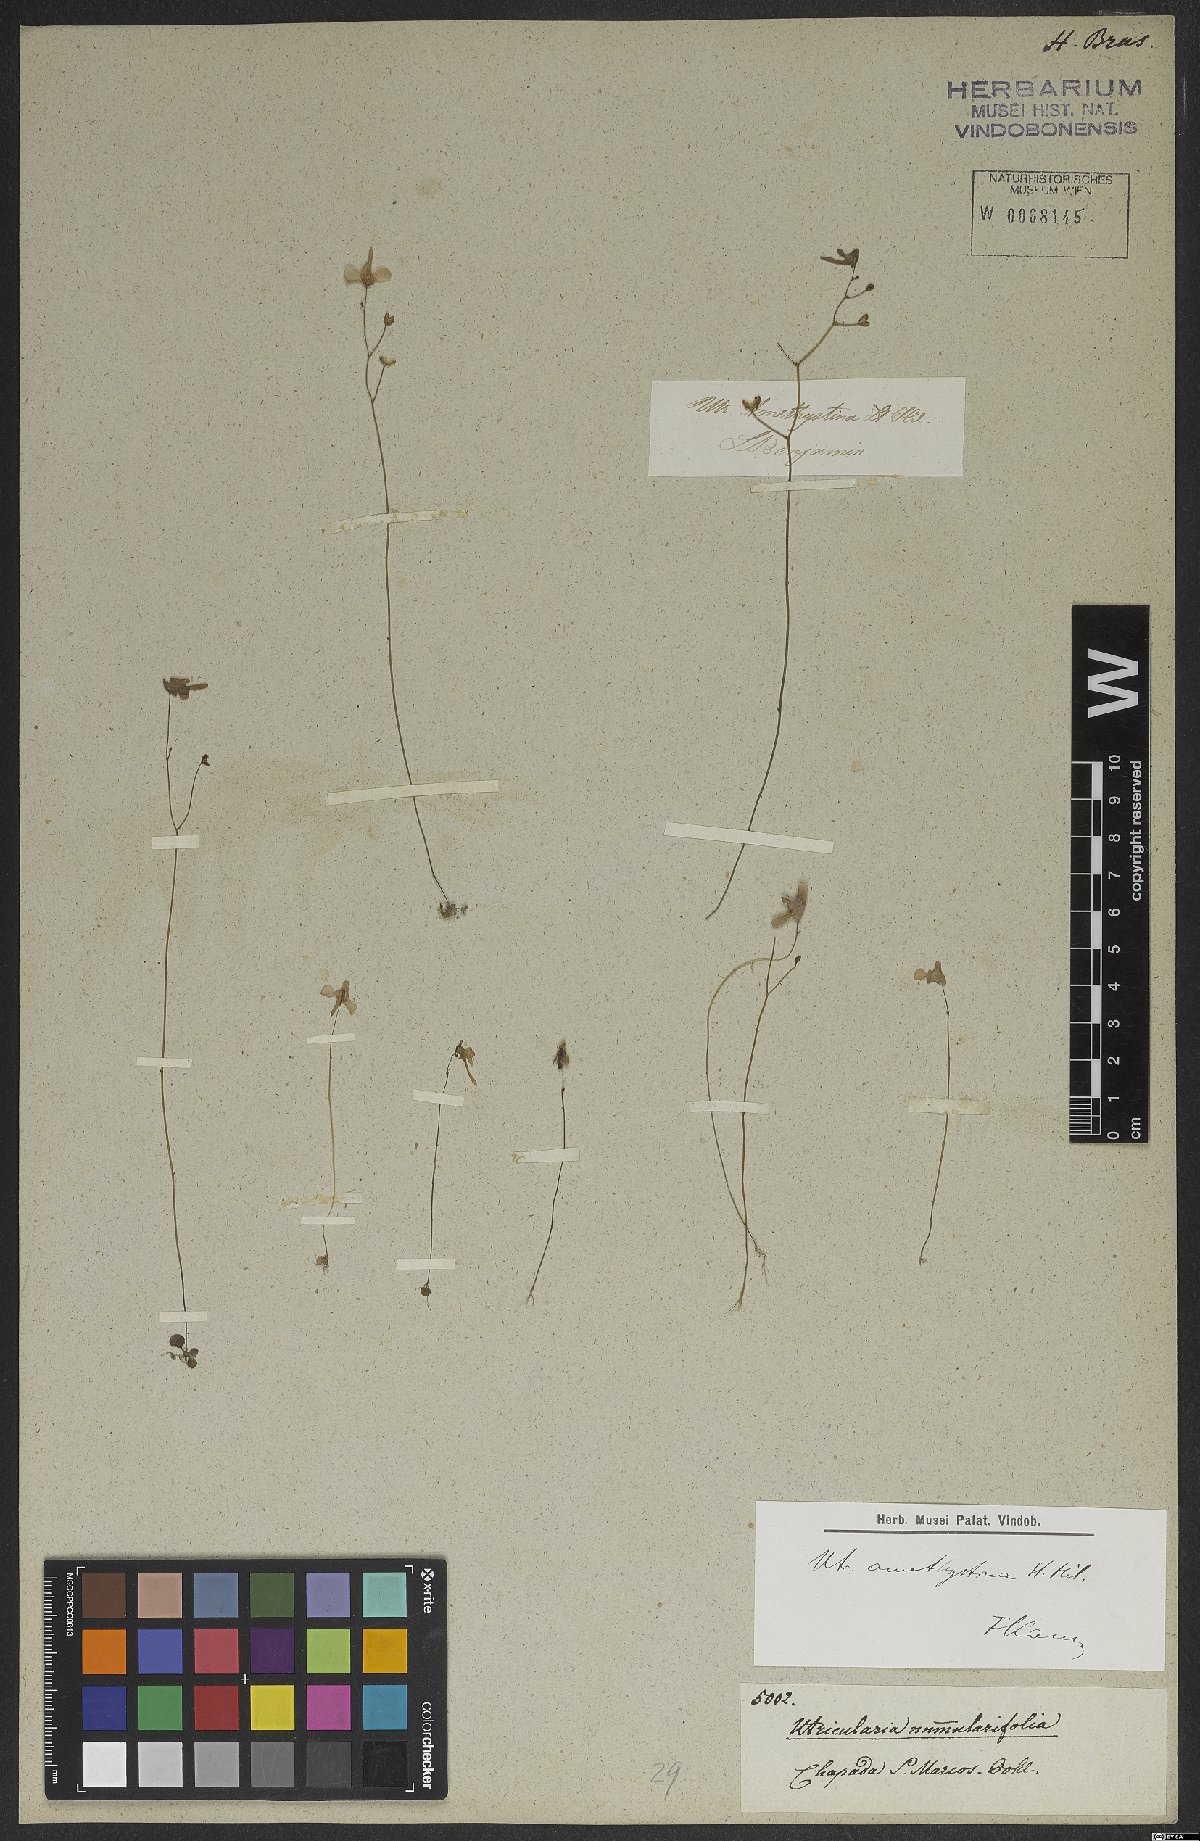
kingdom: Plantae
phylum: Tracheophyta
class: Magnoliopsida
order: Lamiales
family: Lentibulariaceae
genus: Utricularia
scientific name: Utricularia amethystina
